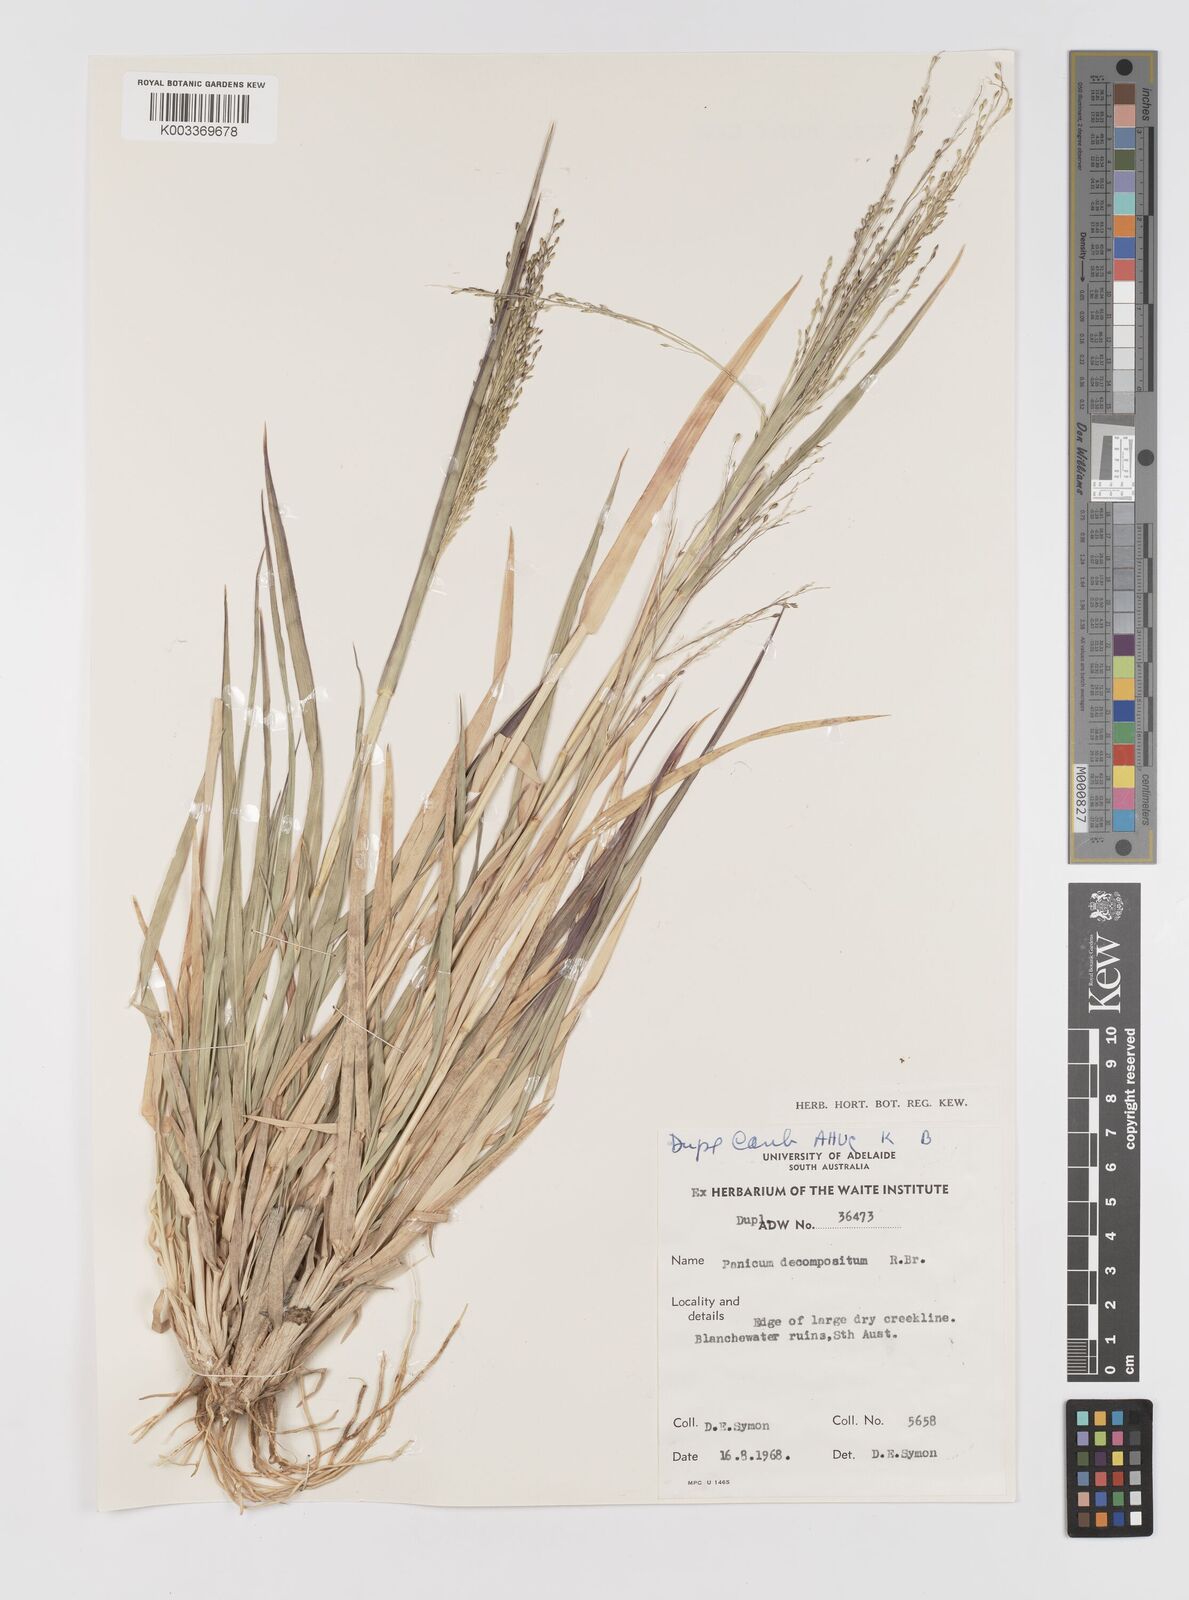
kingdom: Plantae
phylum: Tracheophyta
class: Liliopsida
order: Poales
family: Poaceae
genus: Panicum
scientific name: Panicum decompositum
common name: Australian millet
